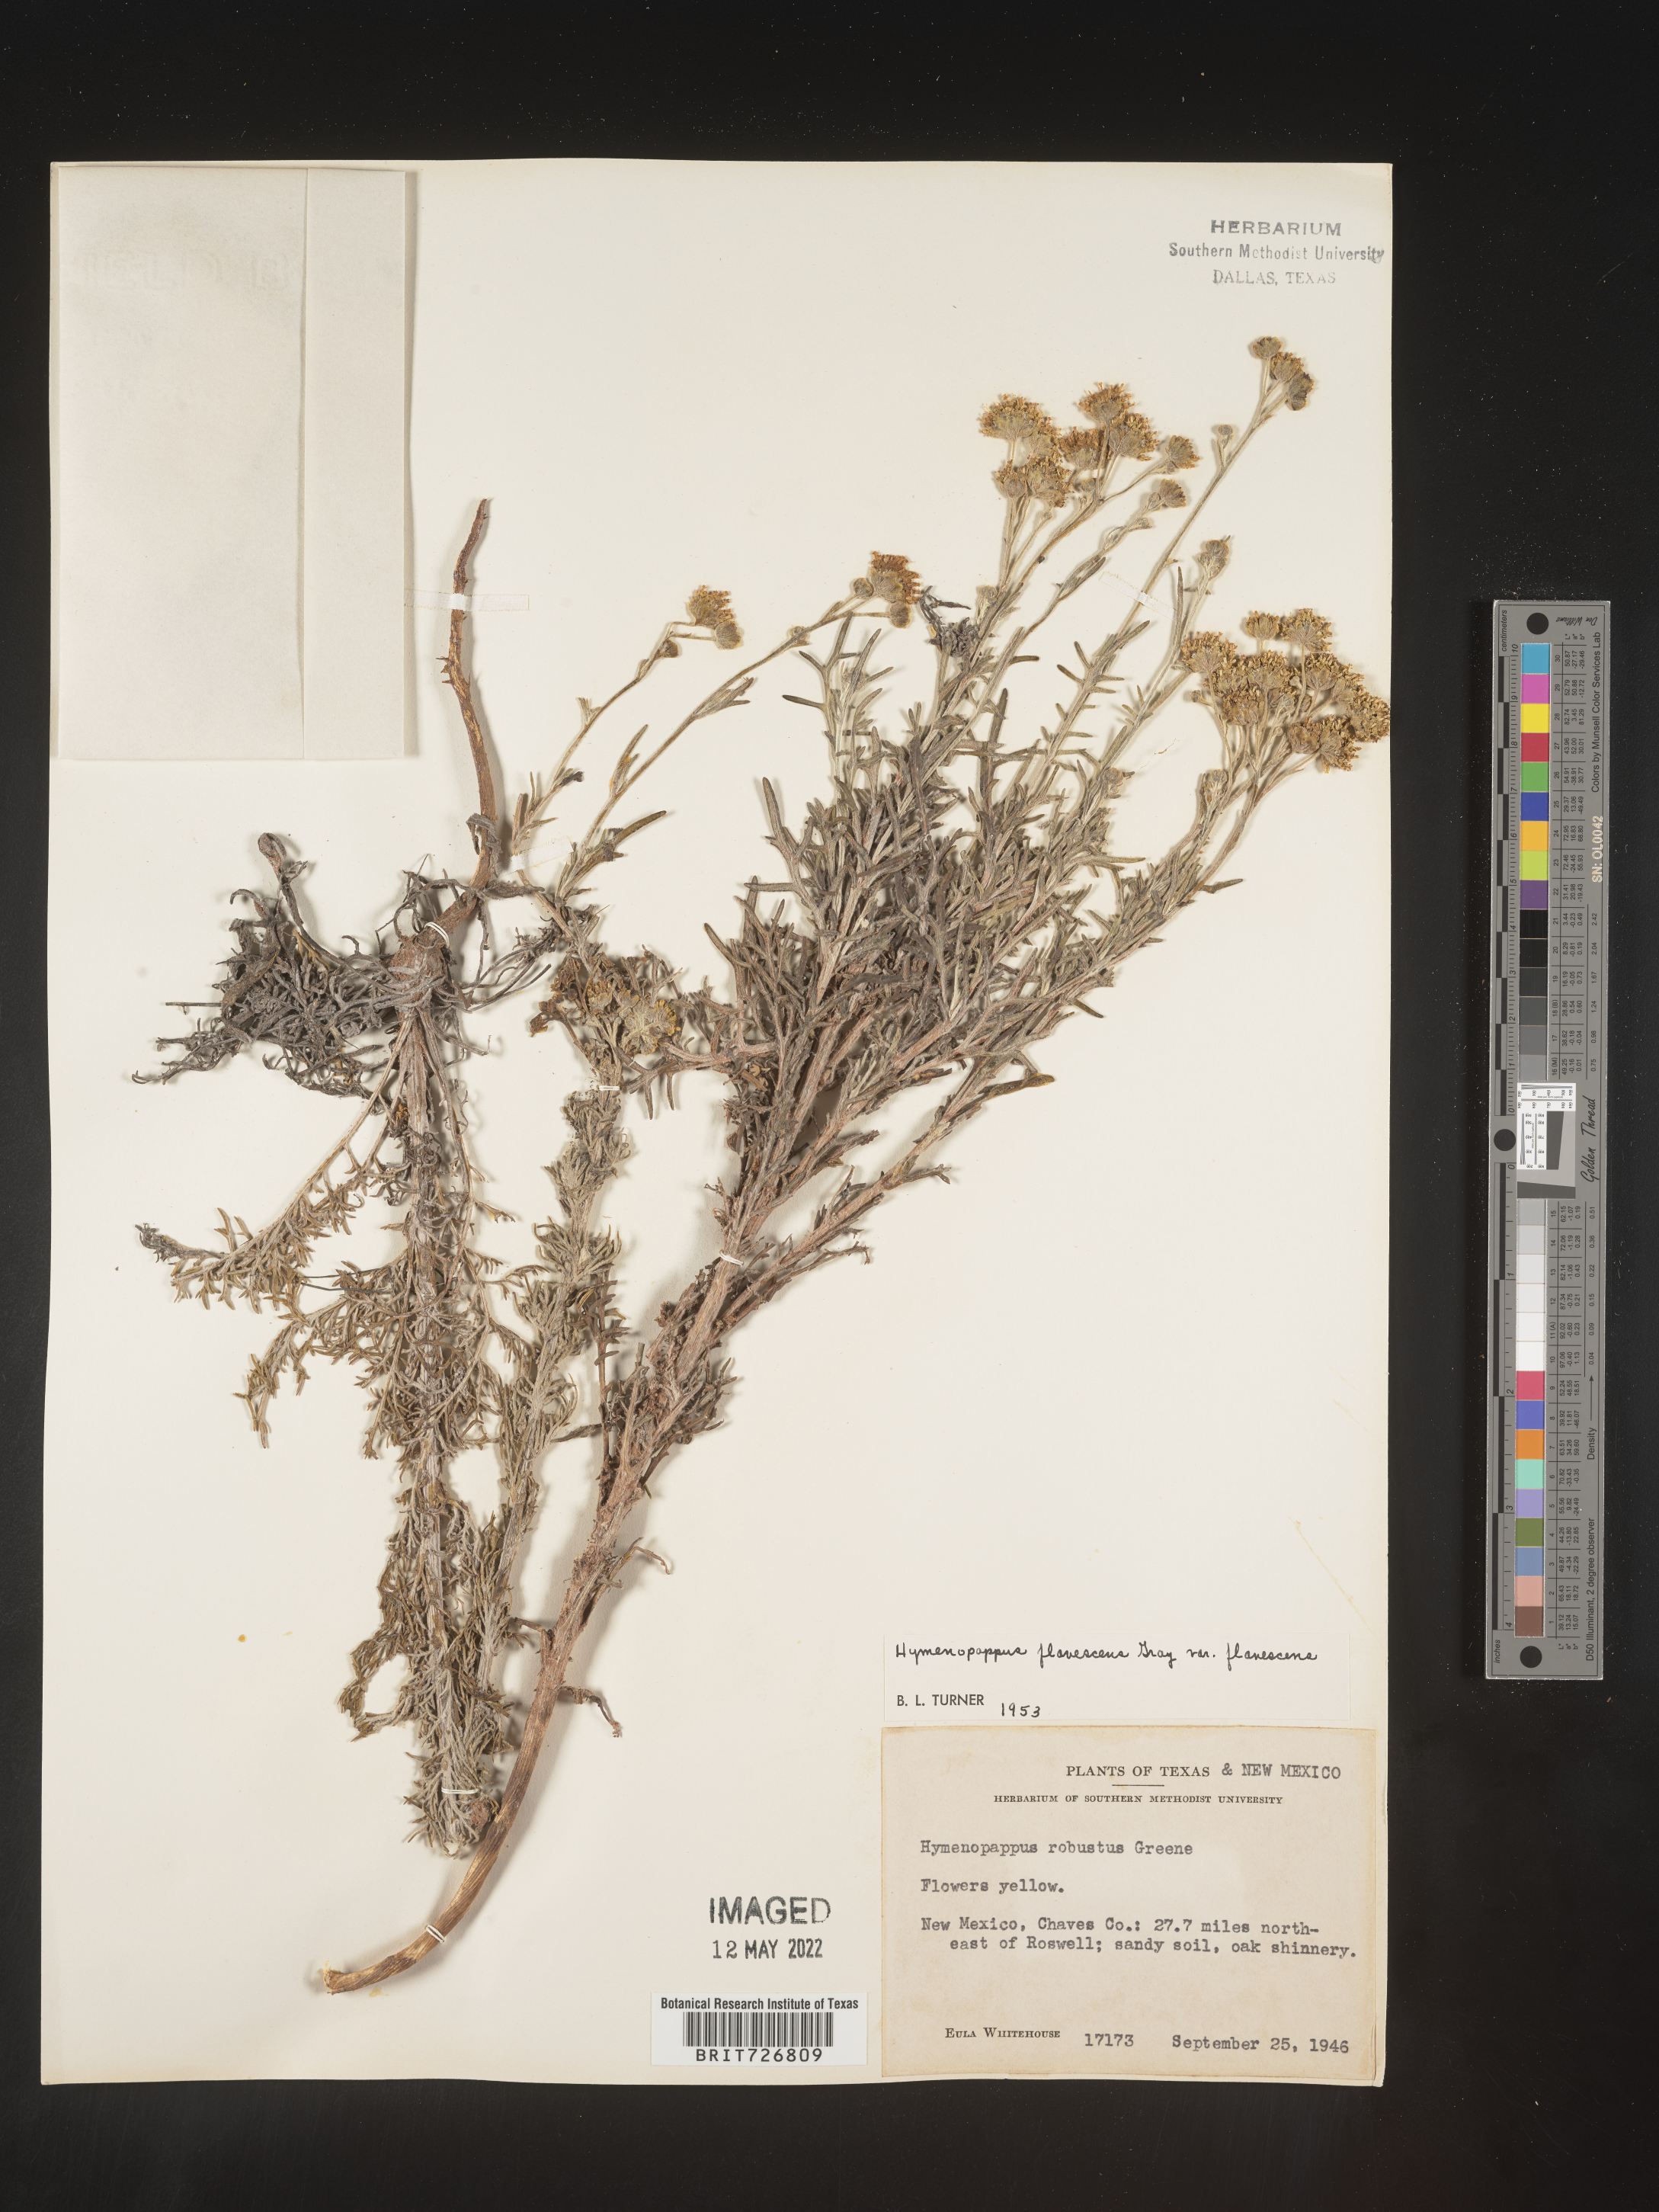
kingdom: Plantae
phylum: Tracheophyta
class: Magnoliopsida
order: Asterales
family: Asteraceae
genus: Hymenopappus
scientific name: Hymenopappus flavescens
